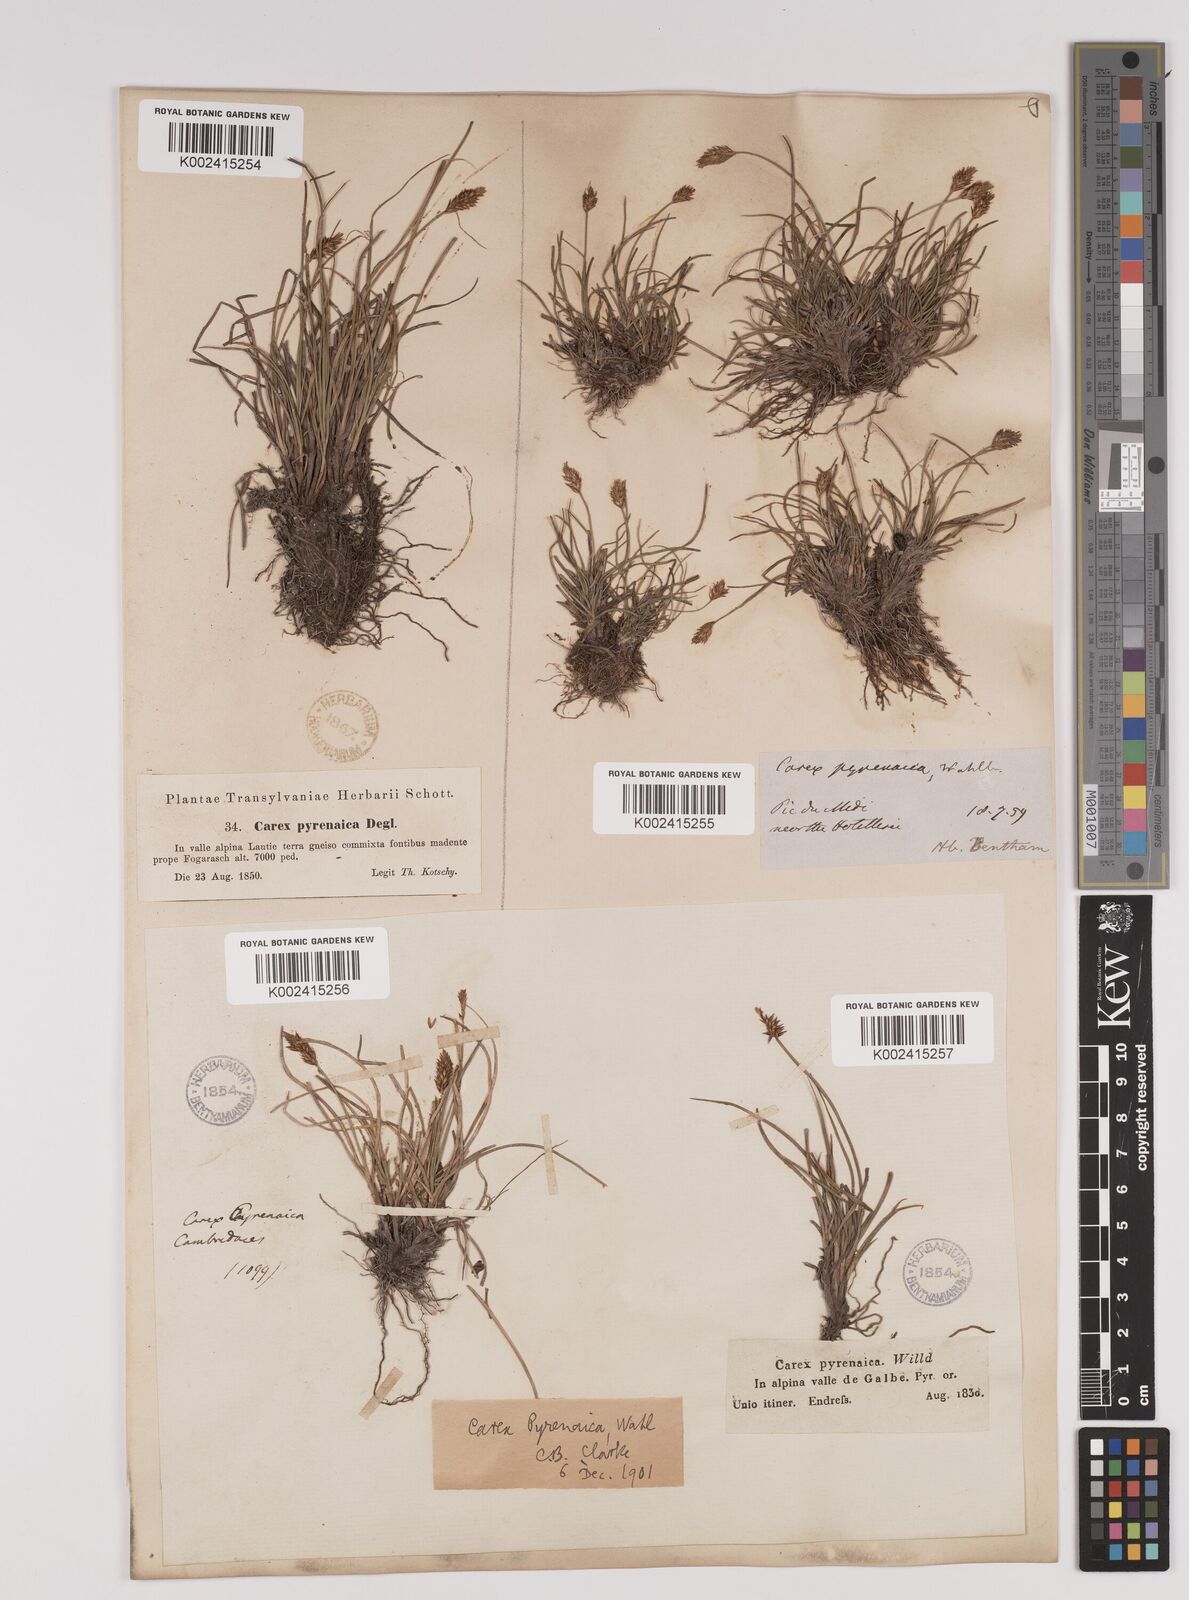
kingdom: Plantae
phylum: Tracheophyta
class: Liliopsida
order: Poales
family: Cyperaceae
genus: Carex
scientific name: Carex acicularis
